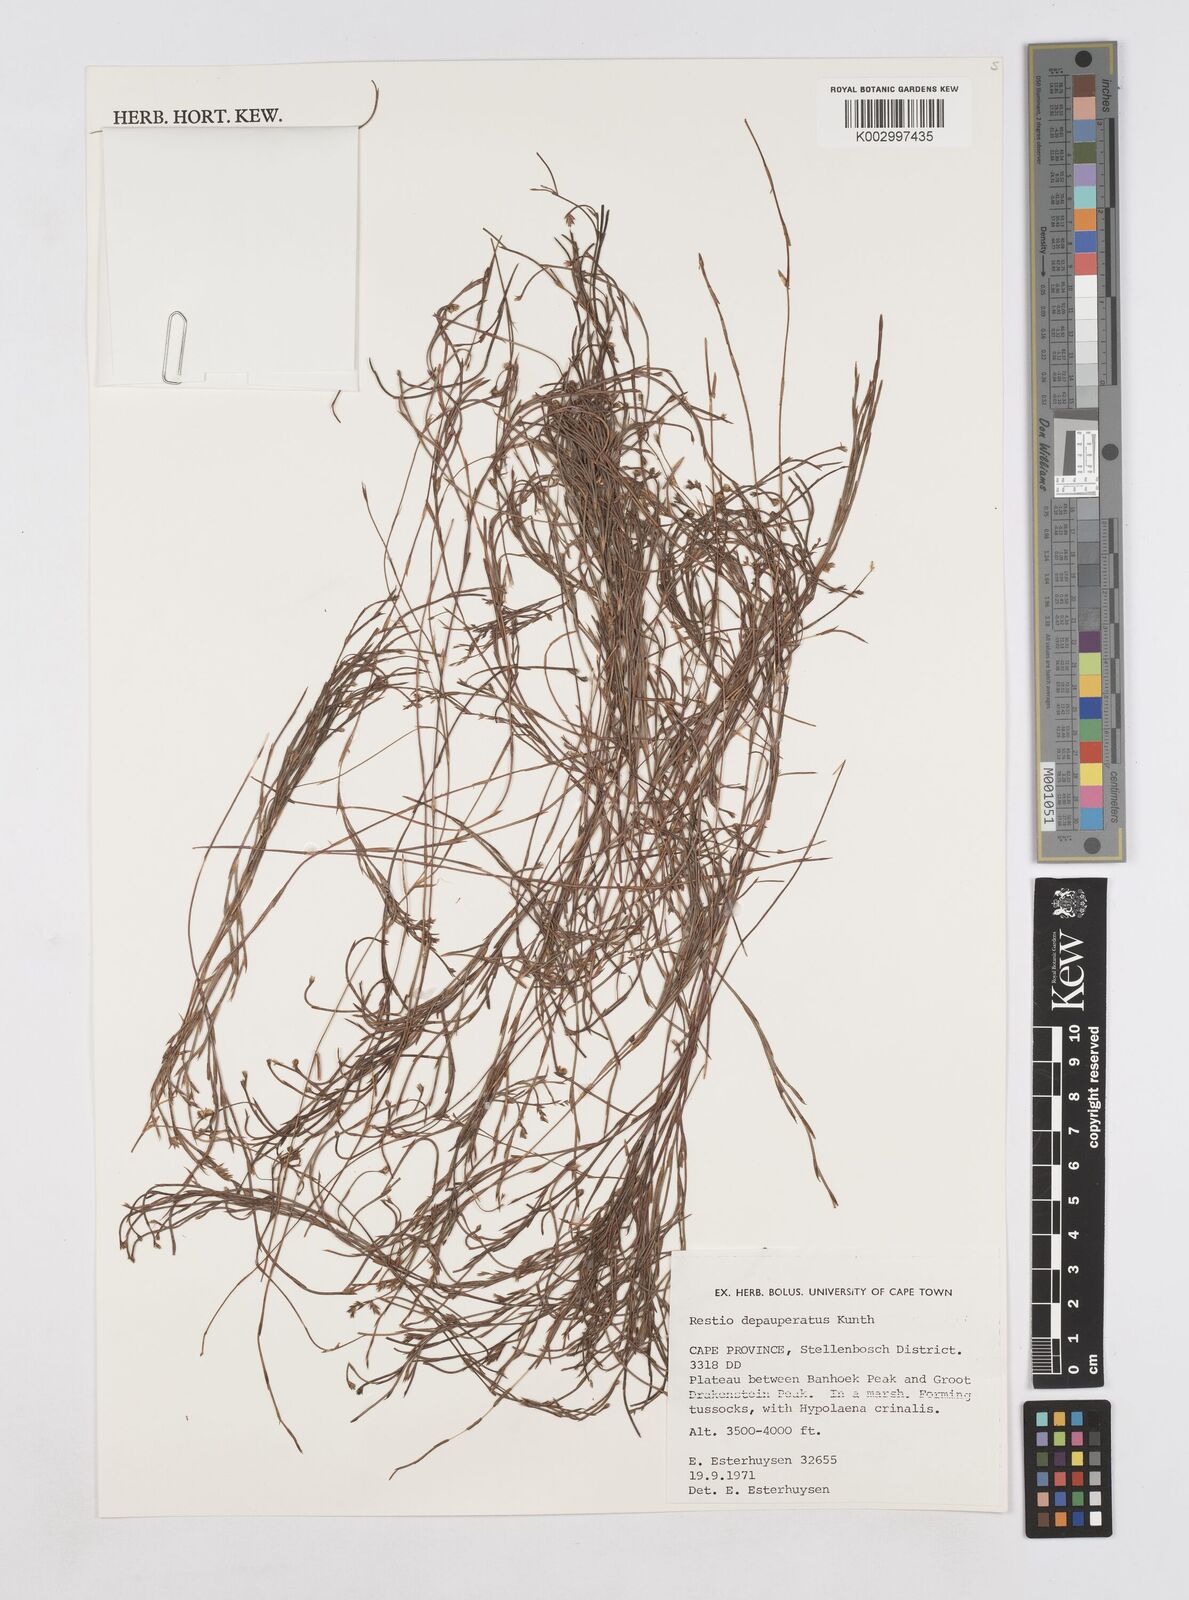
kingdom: Plantae
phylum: Tracheophyta
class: Liliopsida
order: Poales
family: Restionaceae
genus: Platycaulos
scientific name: Platycaulos depauperatus
